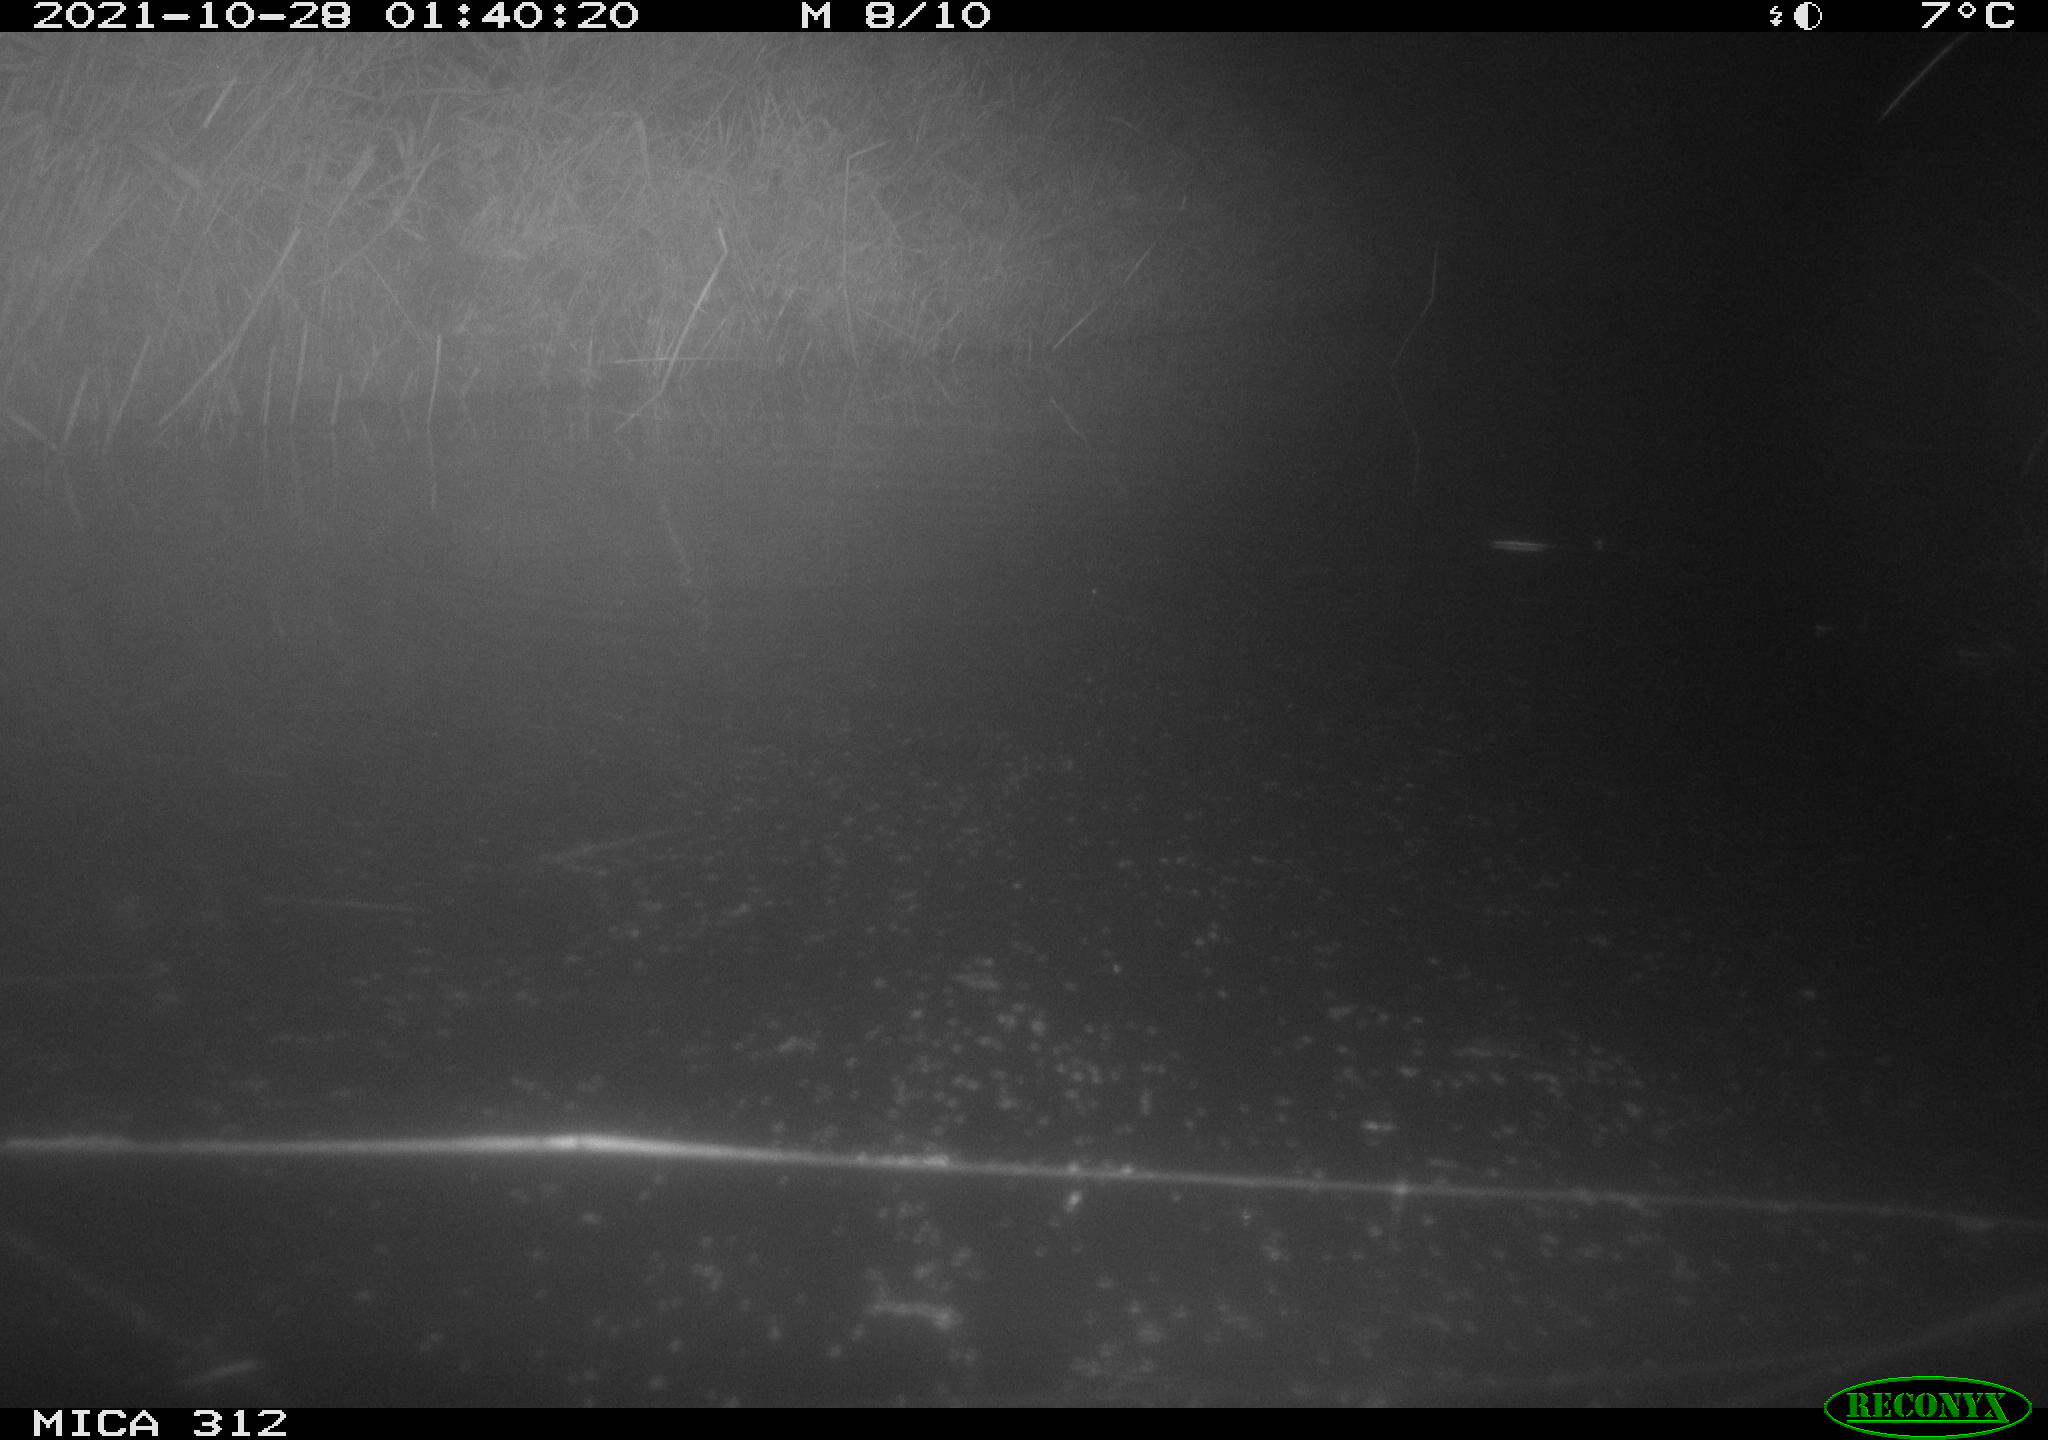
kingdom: Animalia
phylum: Chordata
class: Mammalia
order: Rodentia
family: Muridae
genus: Rattus
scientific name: Rattus norvegicus
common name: Brown rat
